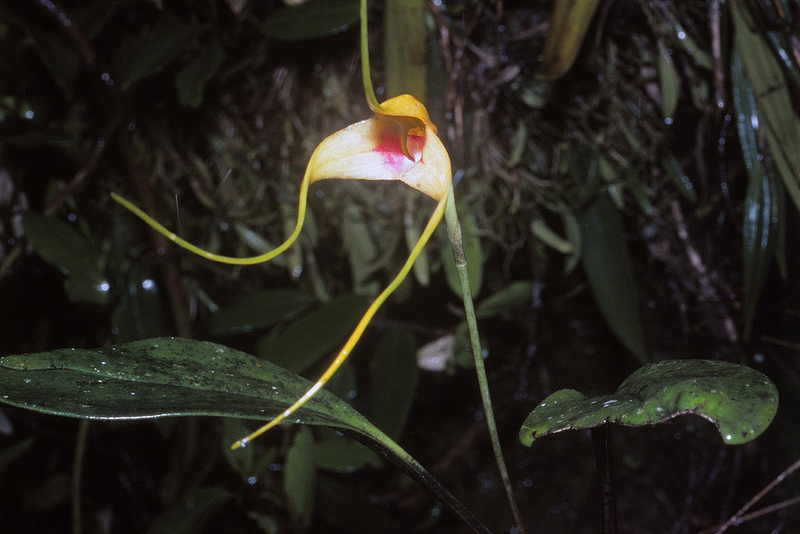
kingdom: Plantae
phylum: Tracheophyta
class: Liliopsida
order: Asparagales
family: Orchidaceae
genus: Masdevallia
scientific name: Masdevallia macropus
